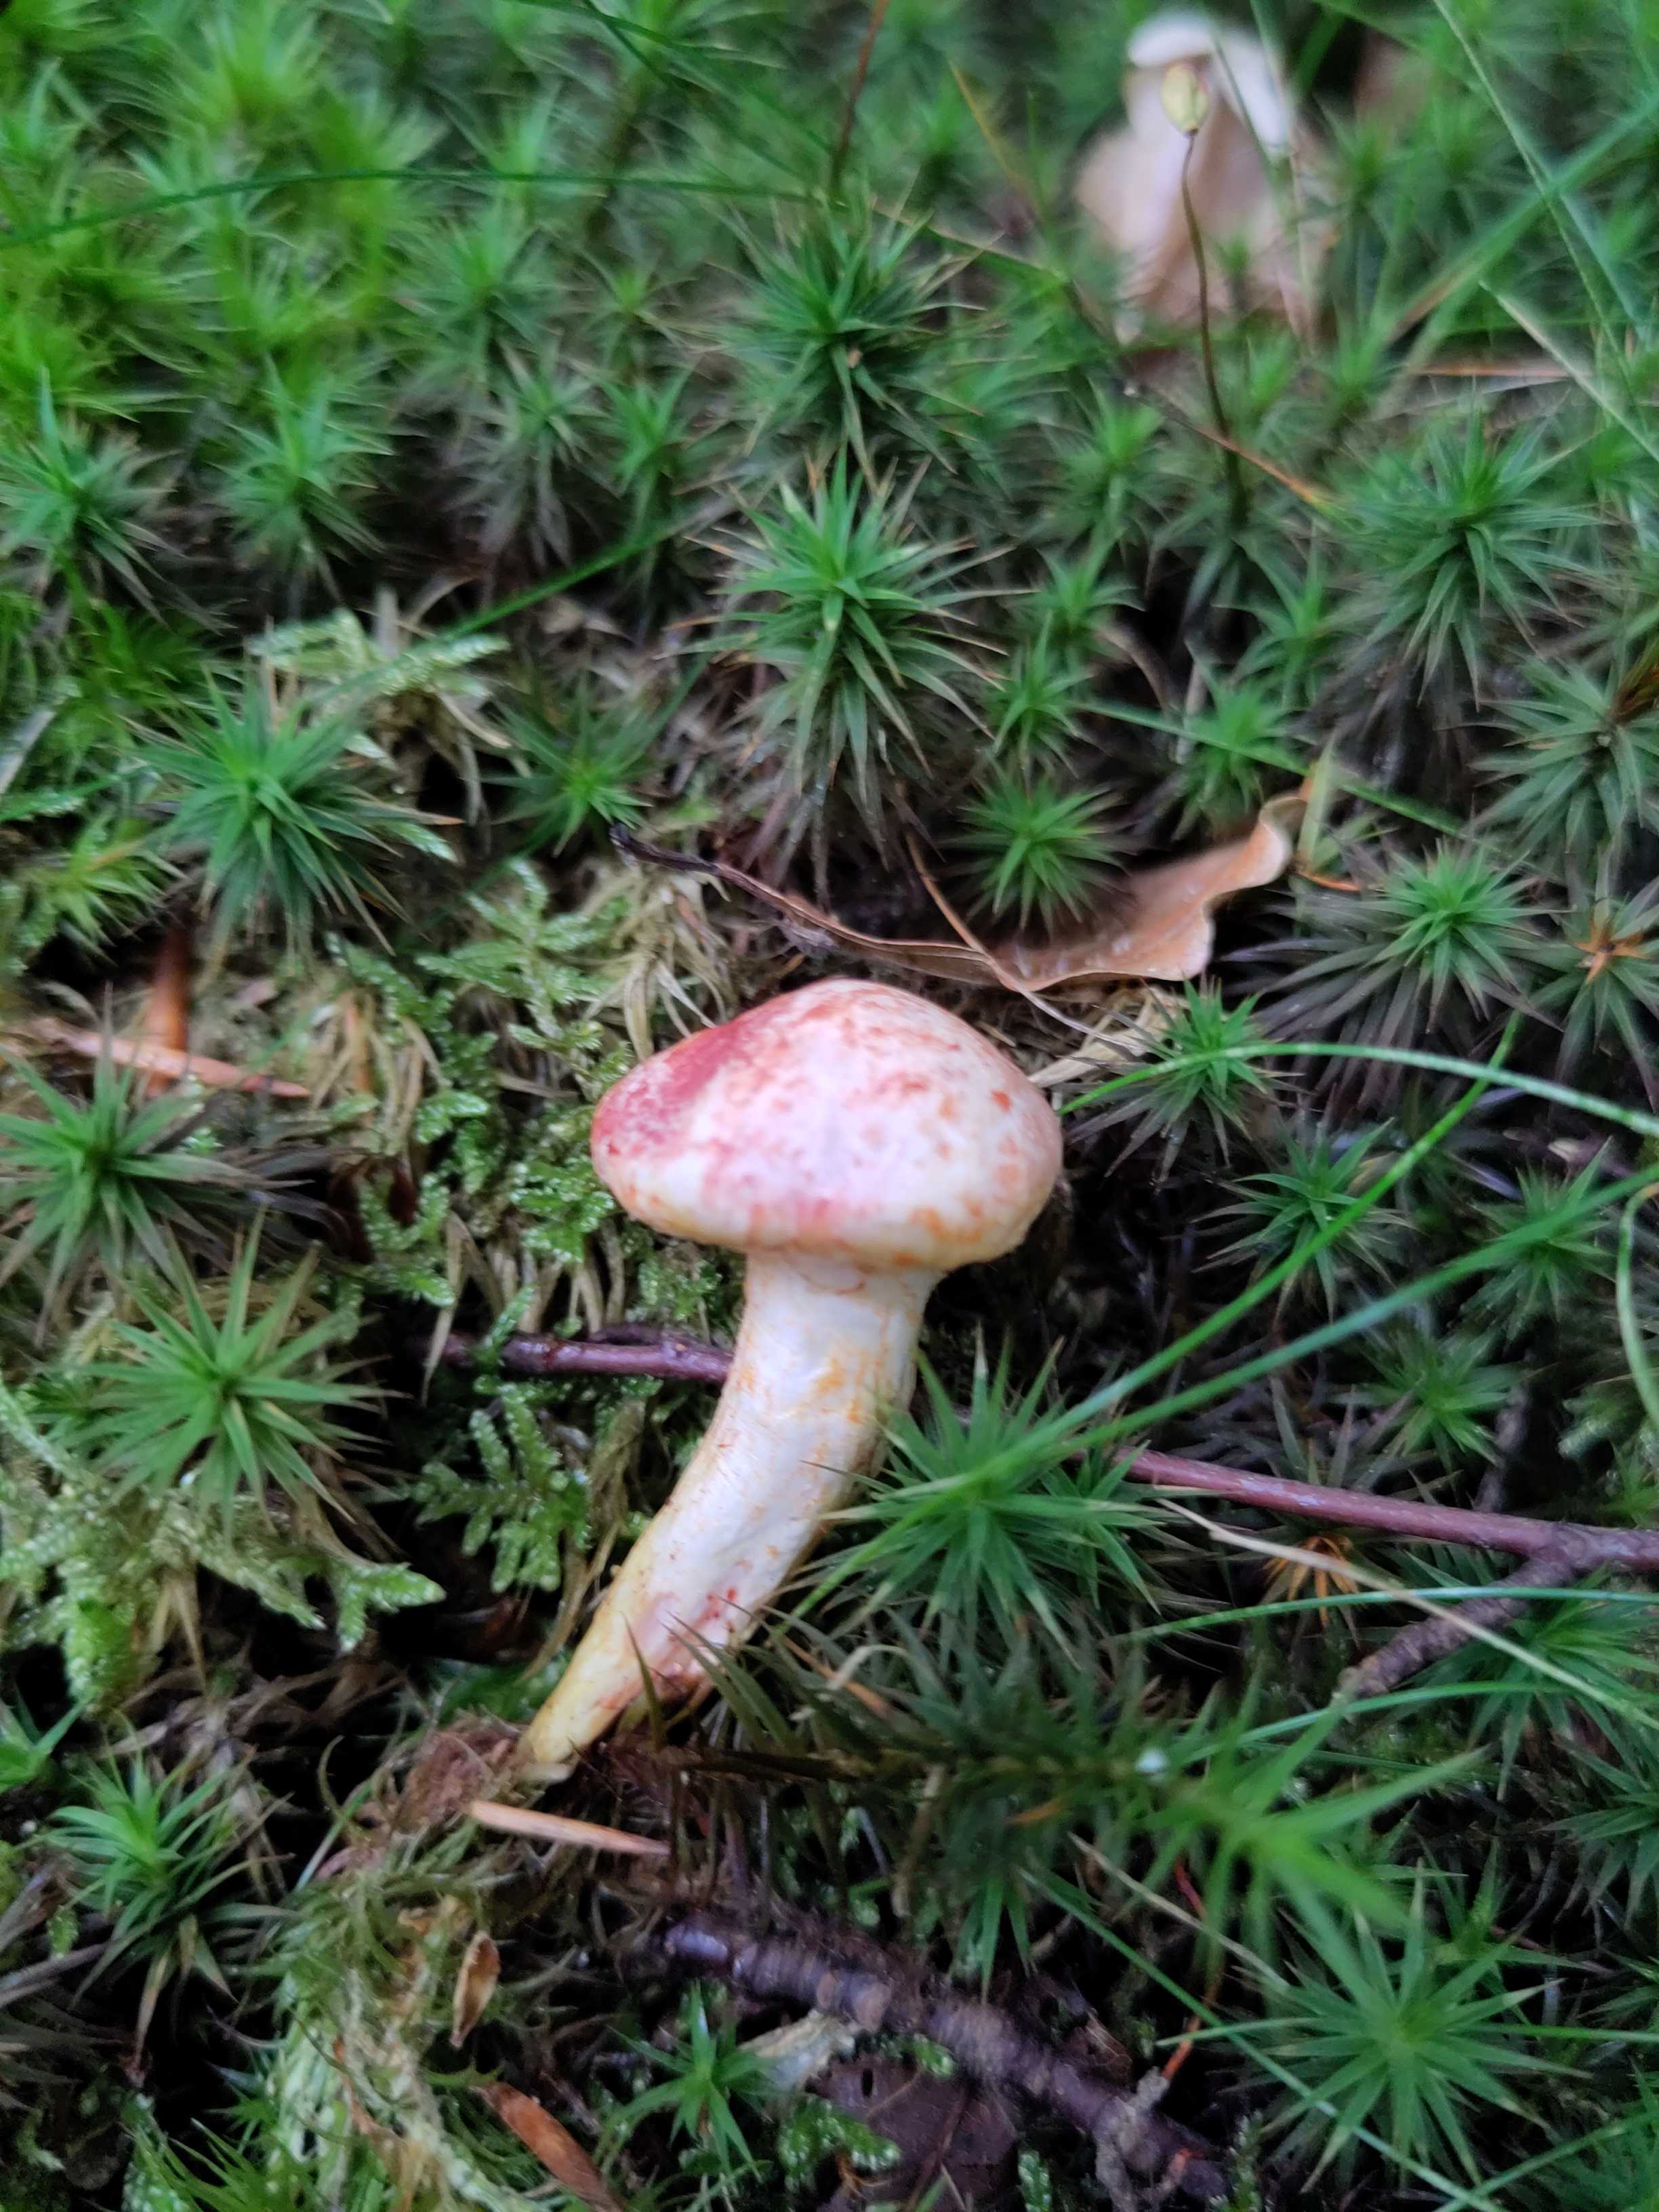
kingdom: Fungi
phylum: Basidiomycota
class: Agaricomycetes
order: Agaricales
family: Cortinariaceae
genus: Cortinarius
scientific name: Cortinarius bolaris
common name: cinnoberskællet slørhat
